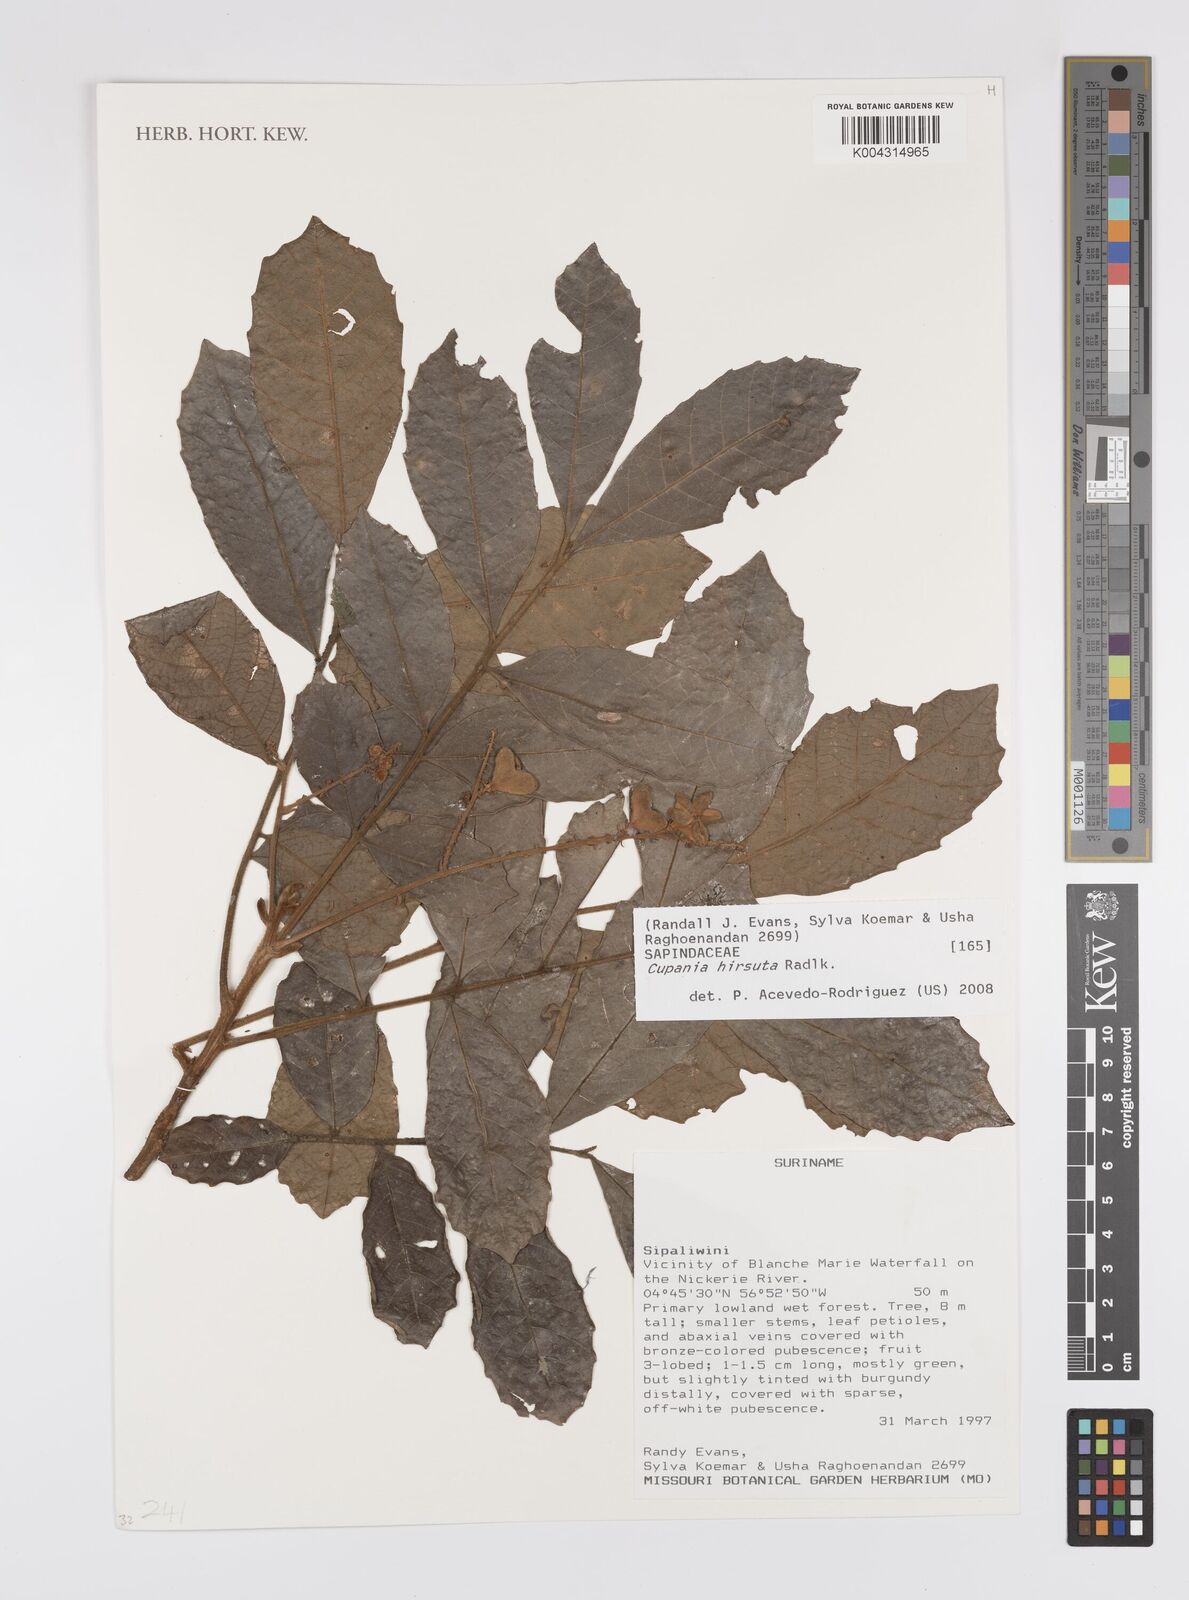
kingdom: Plantae
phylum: Tracheophyta
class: Magnoliopsida
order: Sapindales
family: Sapindaceae
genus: Cupania
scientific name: Cupania hirsuta
